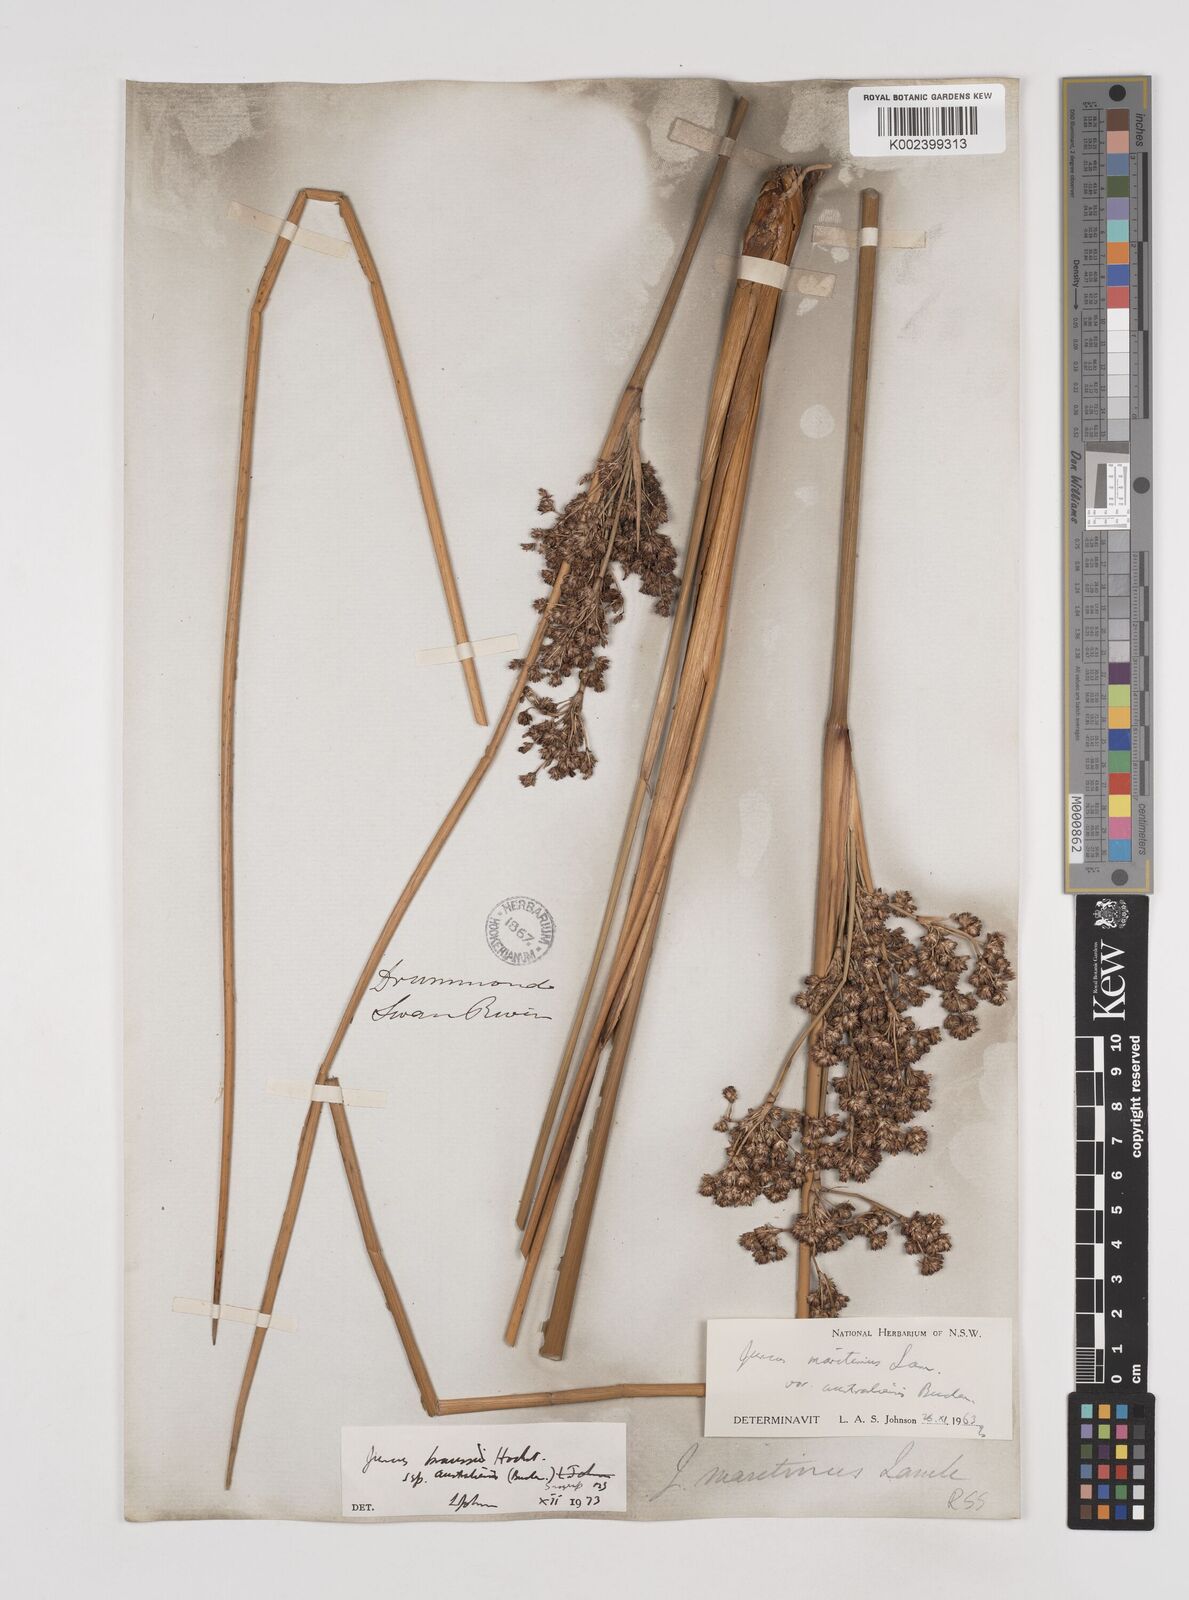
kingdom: Plantae
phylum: Tracheophyta
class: Liliopsida
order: Poales
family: Juncaceae
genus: Juncus
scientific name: Juncus kraussii
